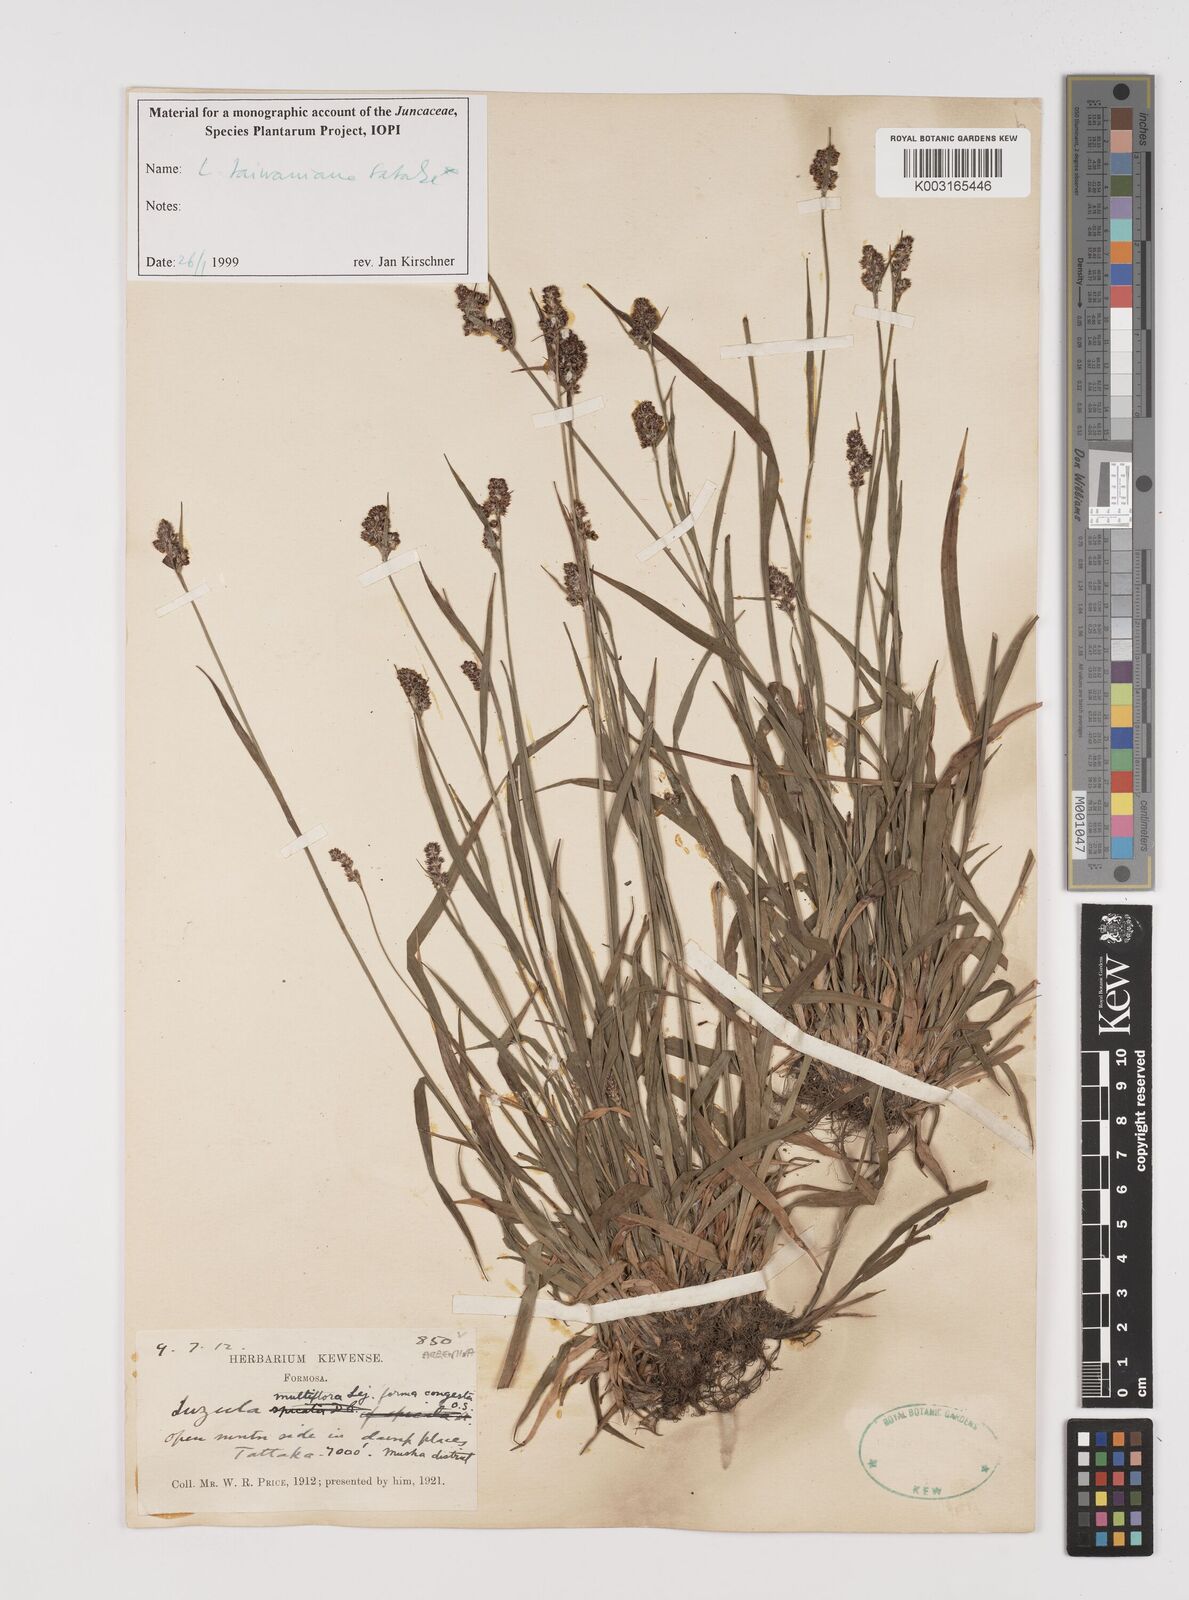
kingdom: Plantae
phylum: Tracheophyta
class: Liliopsida
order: Poales
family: Juncaceae
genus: Luzula
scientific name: Luzula taiwaniana
